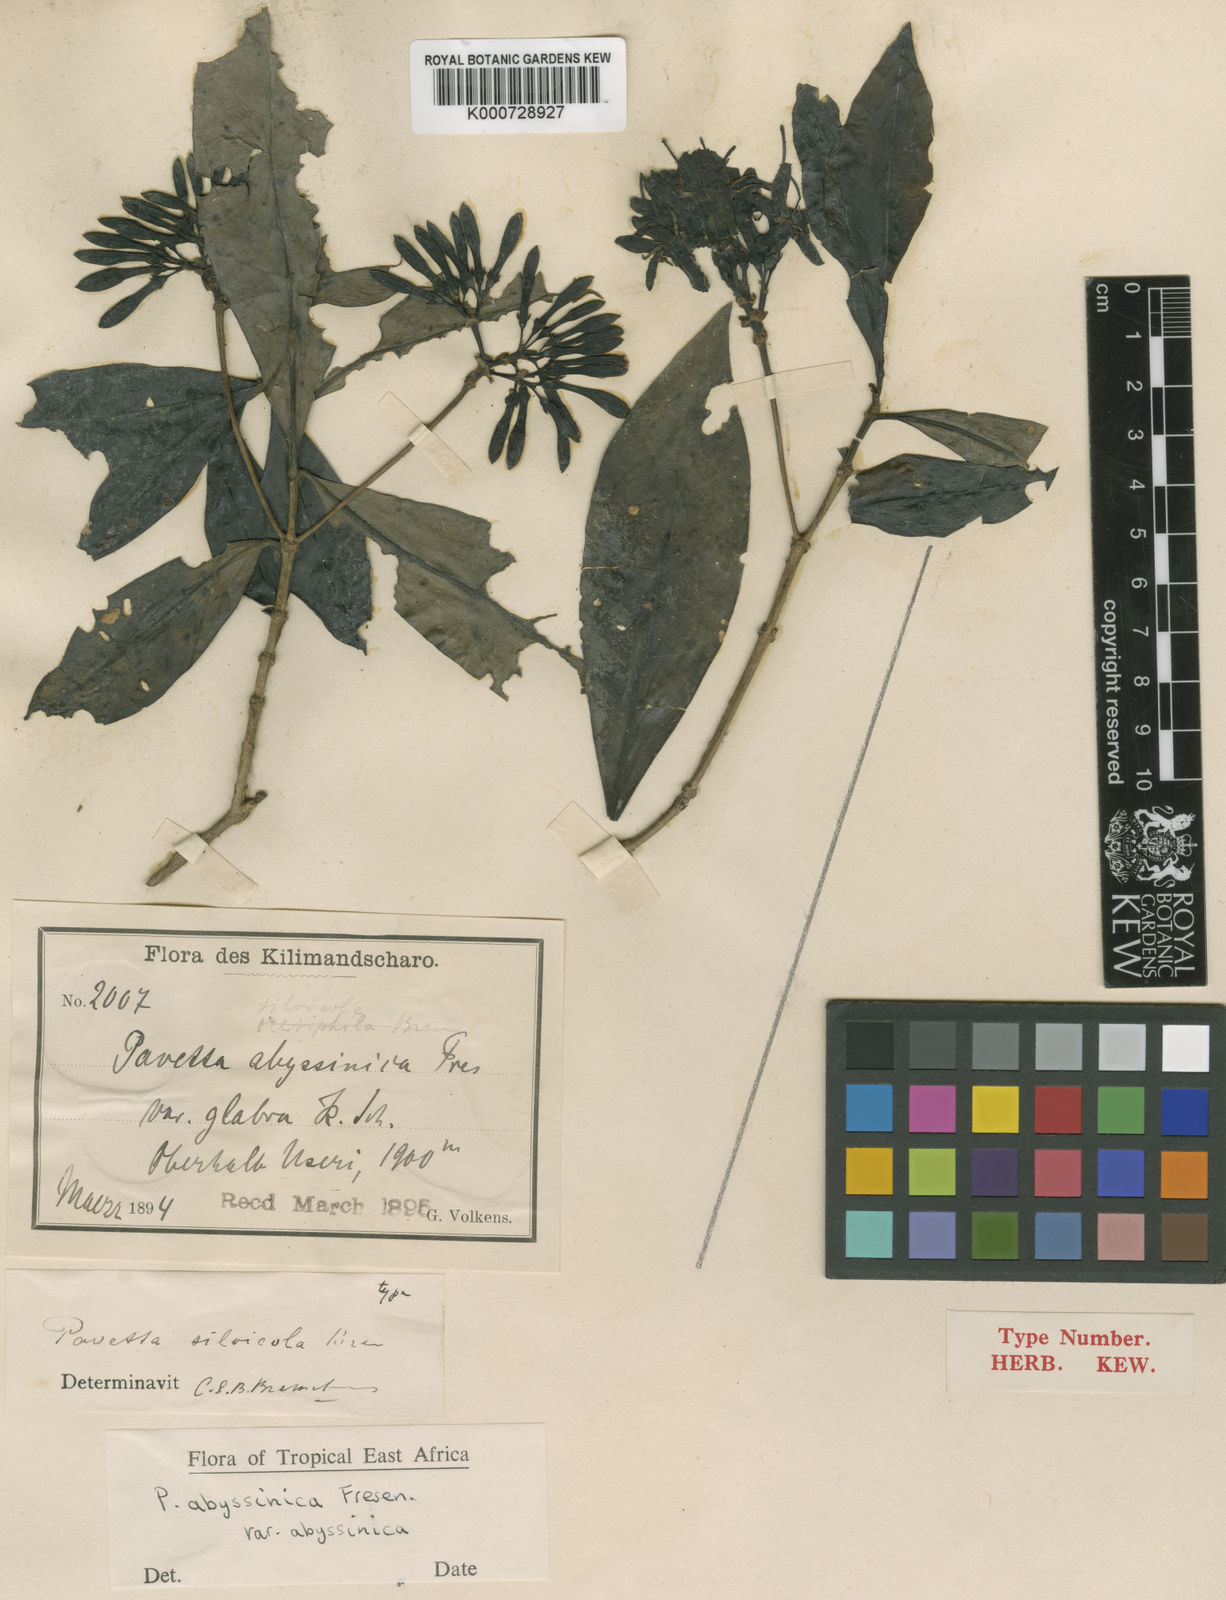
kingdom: Plantae
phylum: Tracheophyta
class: Magnoliopsida
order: Gentianales
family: Rubiaceae
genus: Pavetta
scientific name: Pavetta abyssinica
